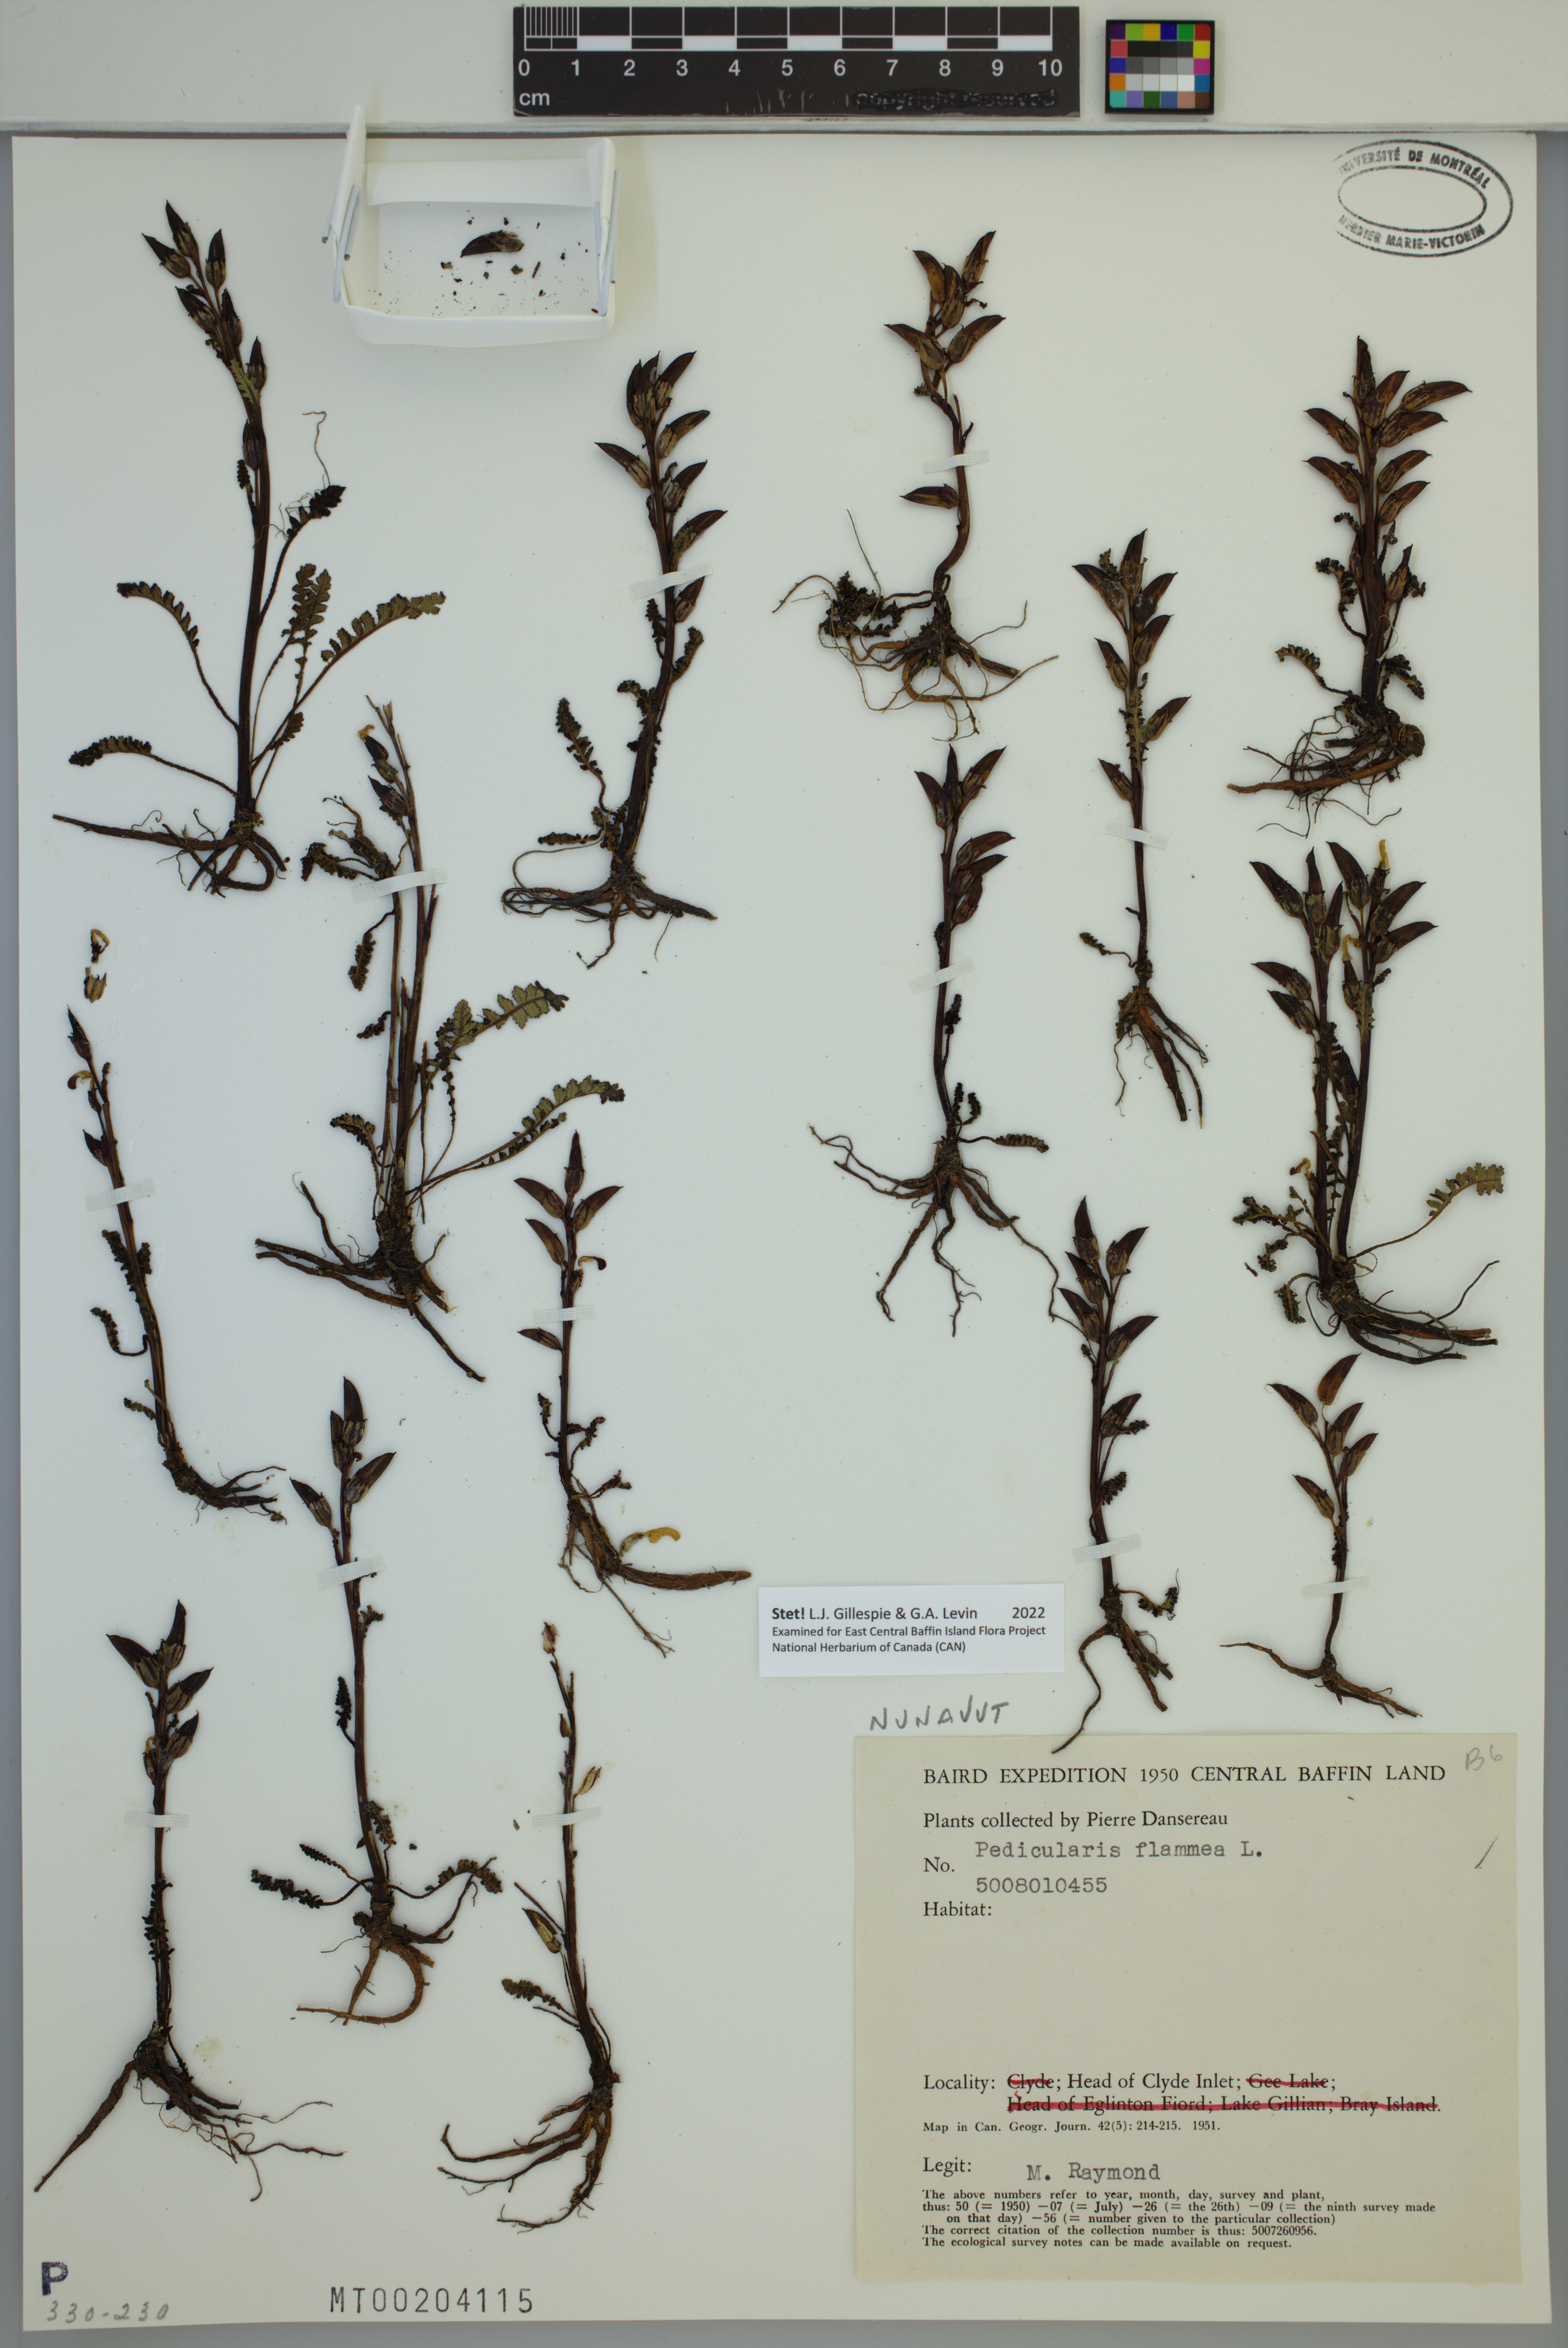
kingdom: Plantae
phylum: Tracheophyta
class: Magnoliopsida
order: Lamiales
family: Orobanchaceae
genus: Pedicularis
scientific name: Pedicularis flammea
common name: Flame-coloured lousewort
